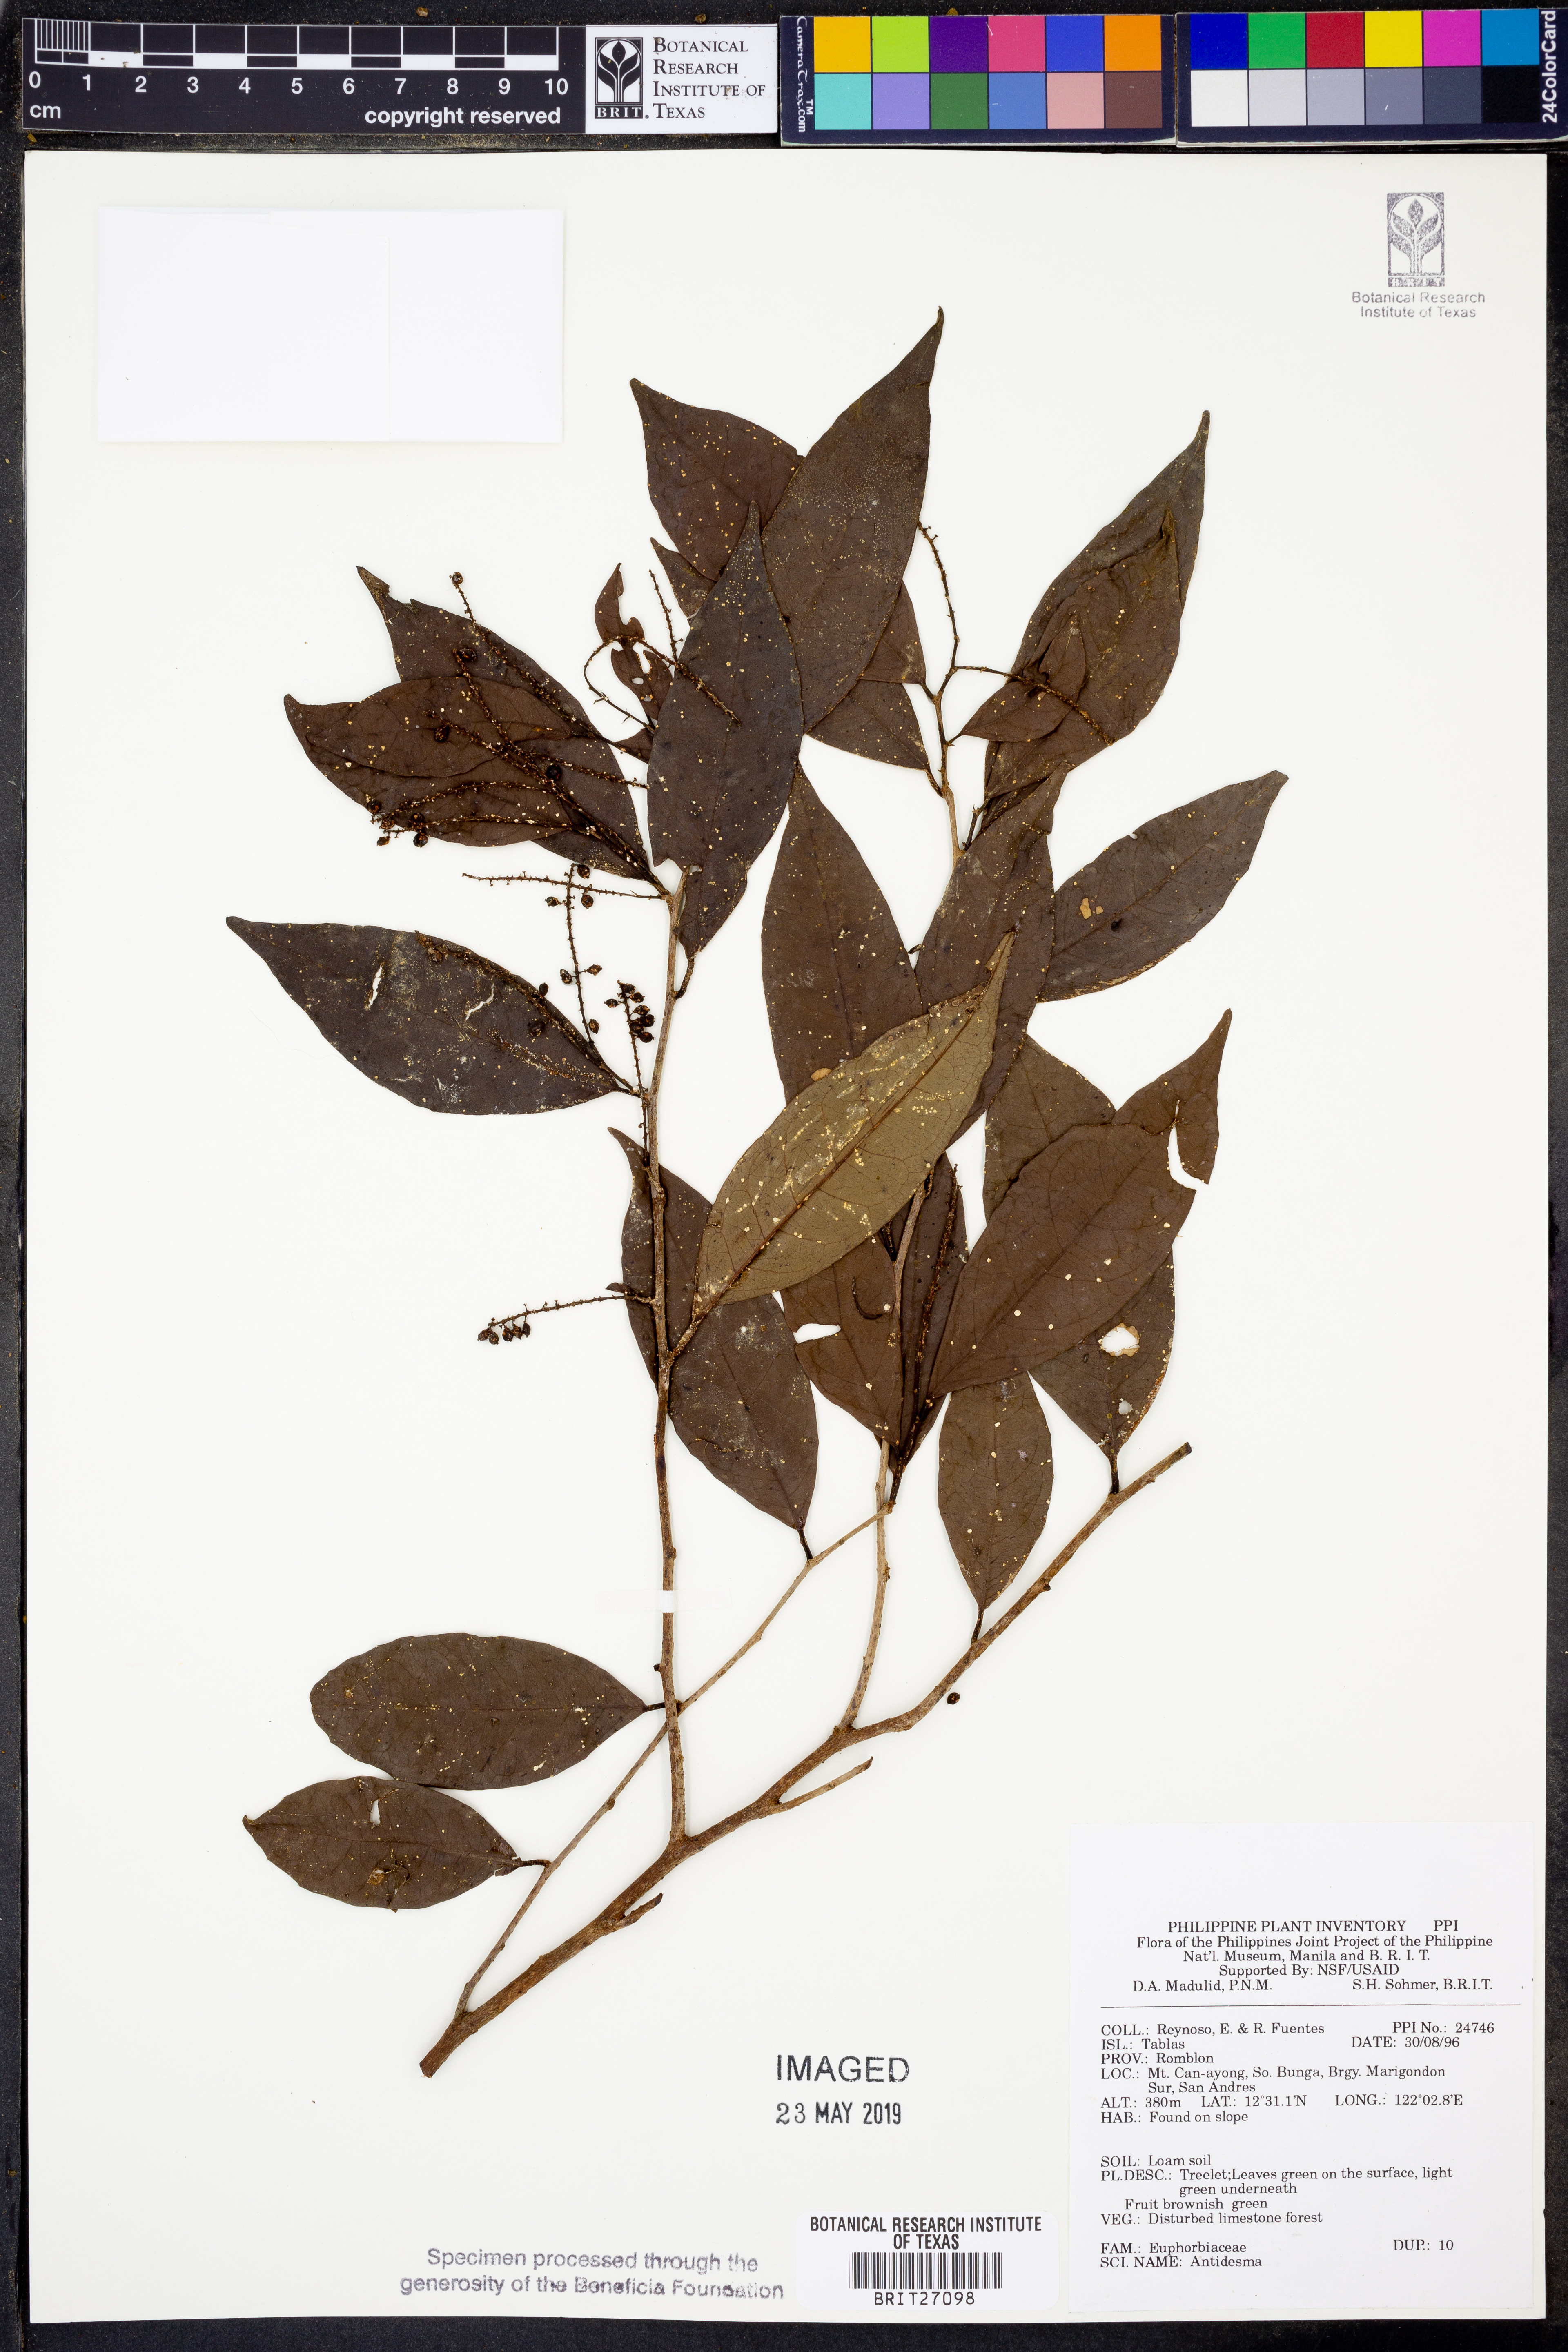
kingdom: Plantae
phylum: Tracheophyta
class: Magnoliopsida
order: Malpighiales
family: Phyllanthaceae
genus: Antidesma
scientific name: Antidesma
